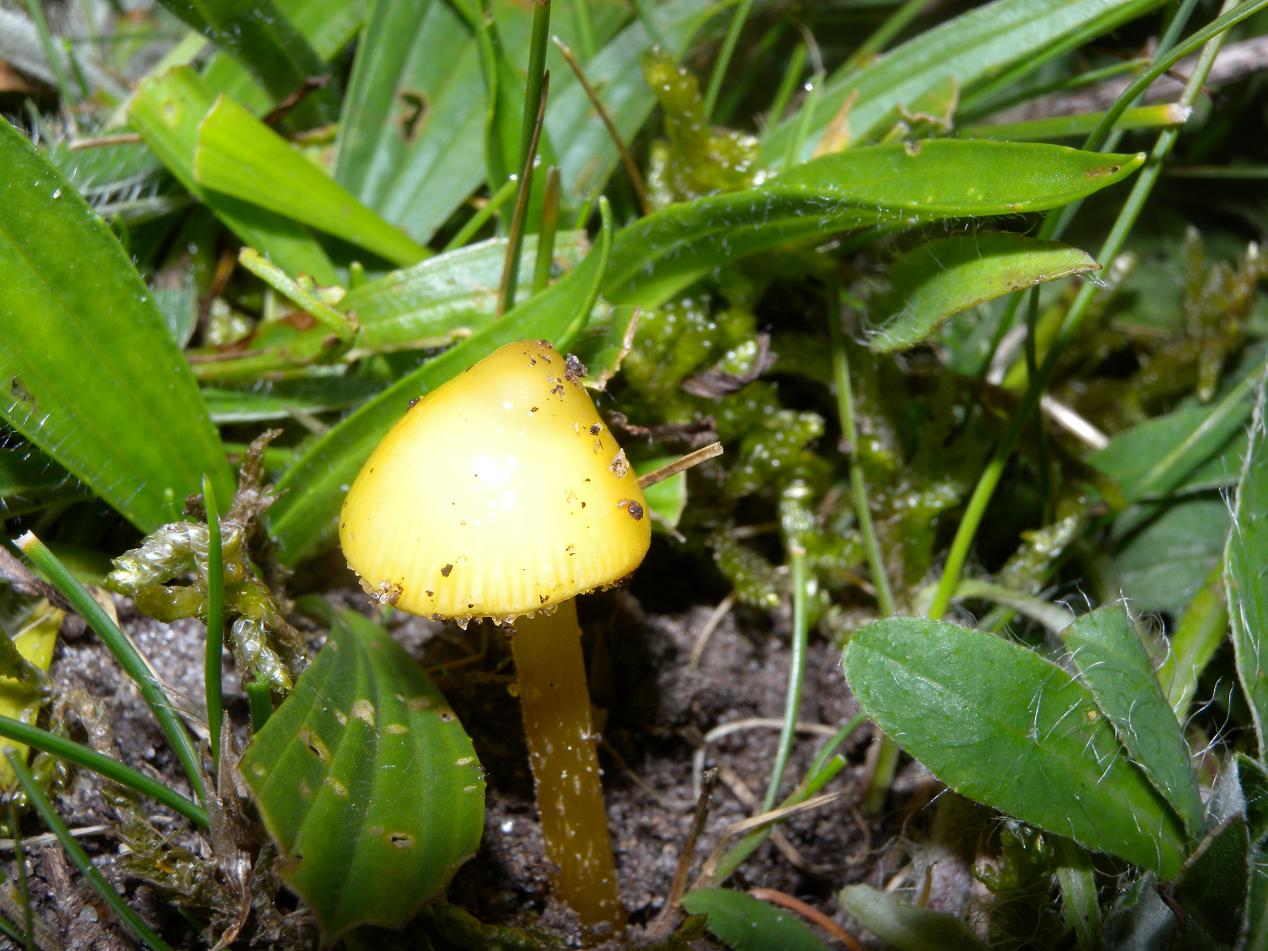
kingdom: Fungi
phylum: Basidiomycota
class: Agaricomycetes
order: Agaricales
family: Hygrophoraceae
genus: Hygrocybe
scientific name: Hygrocybe acutoconica
